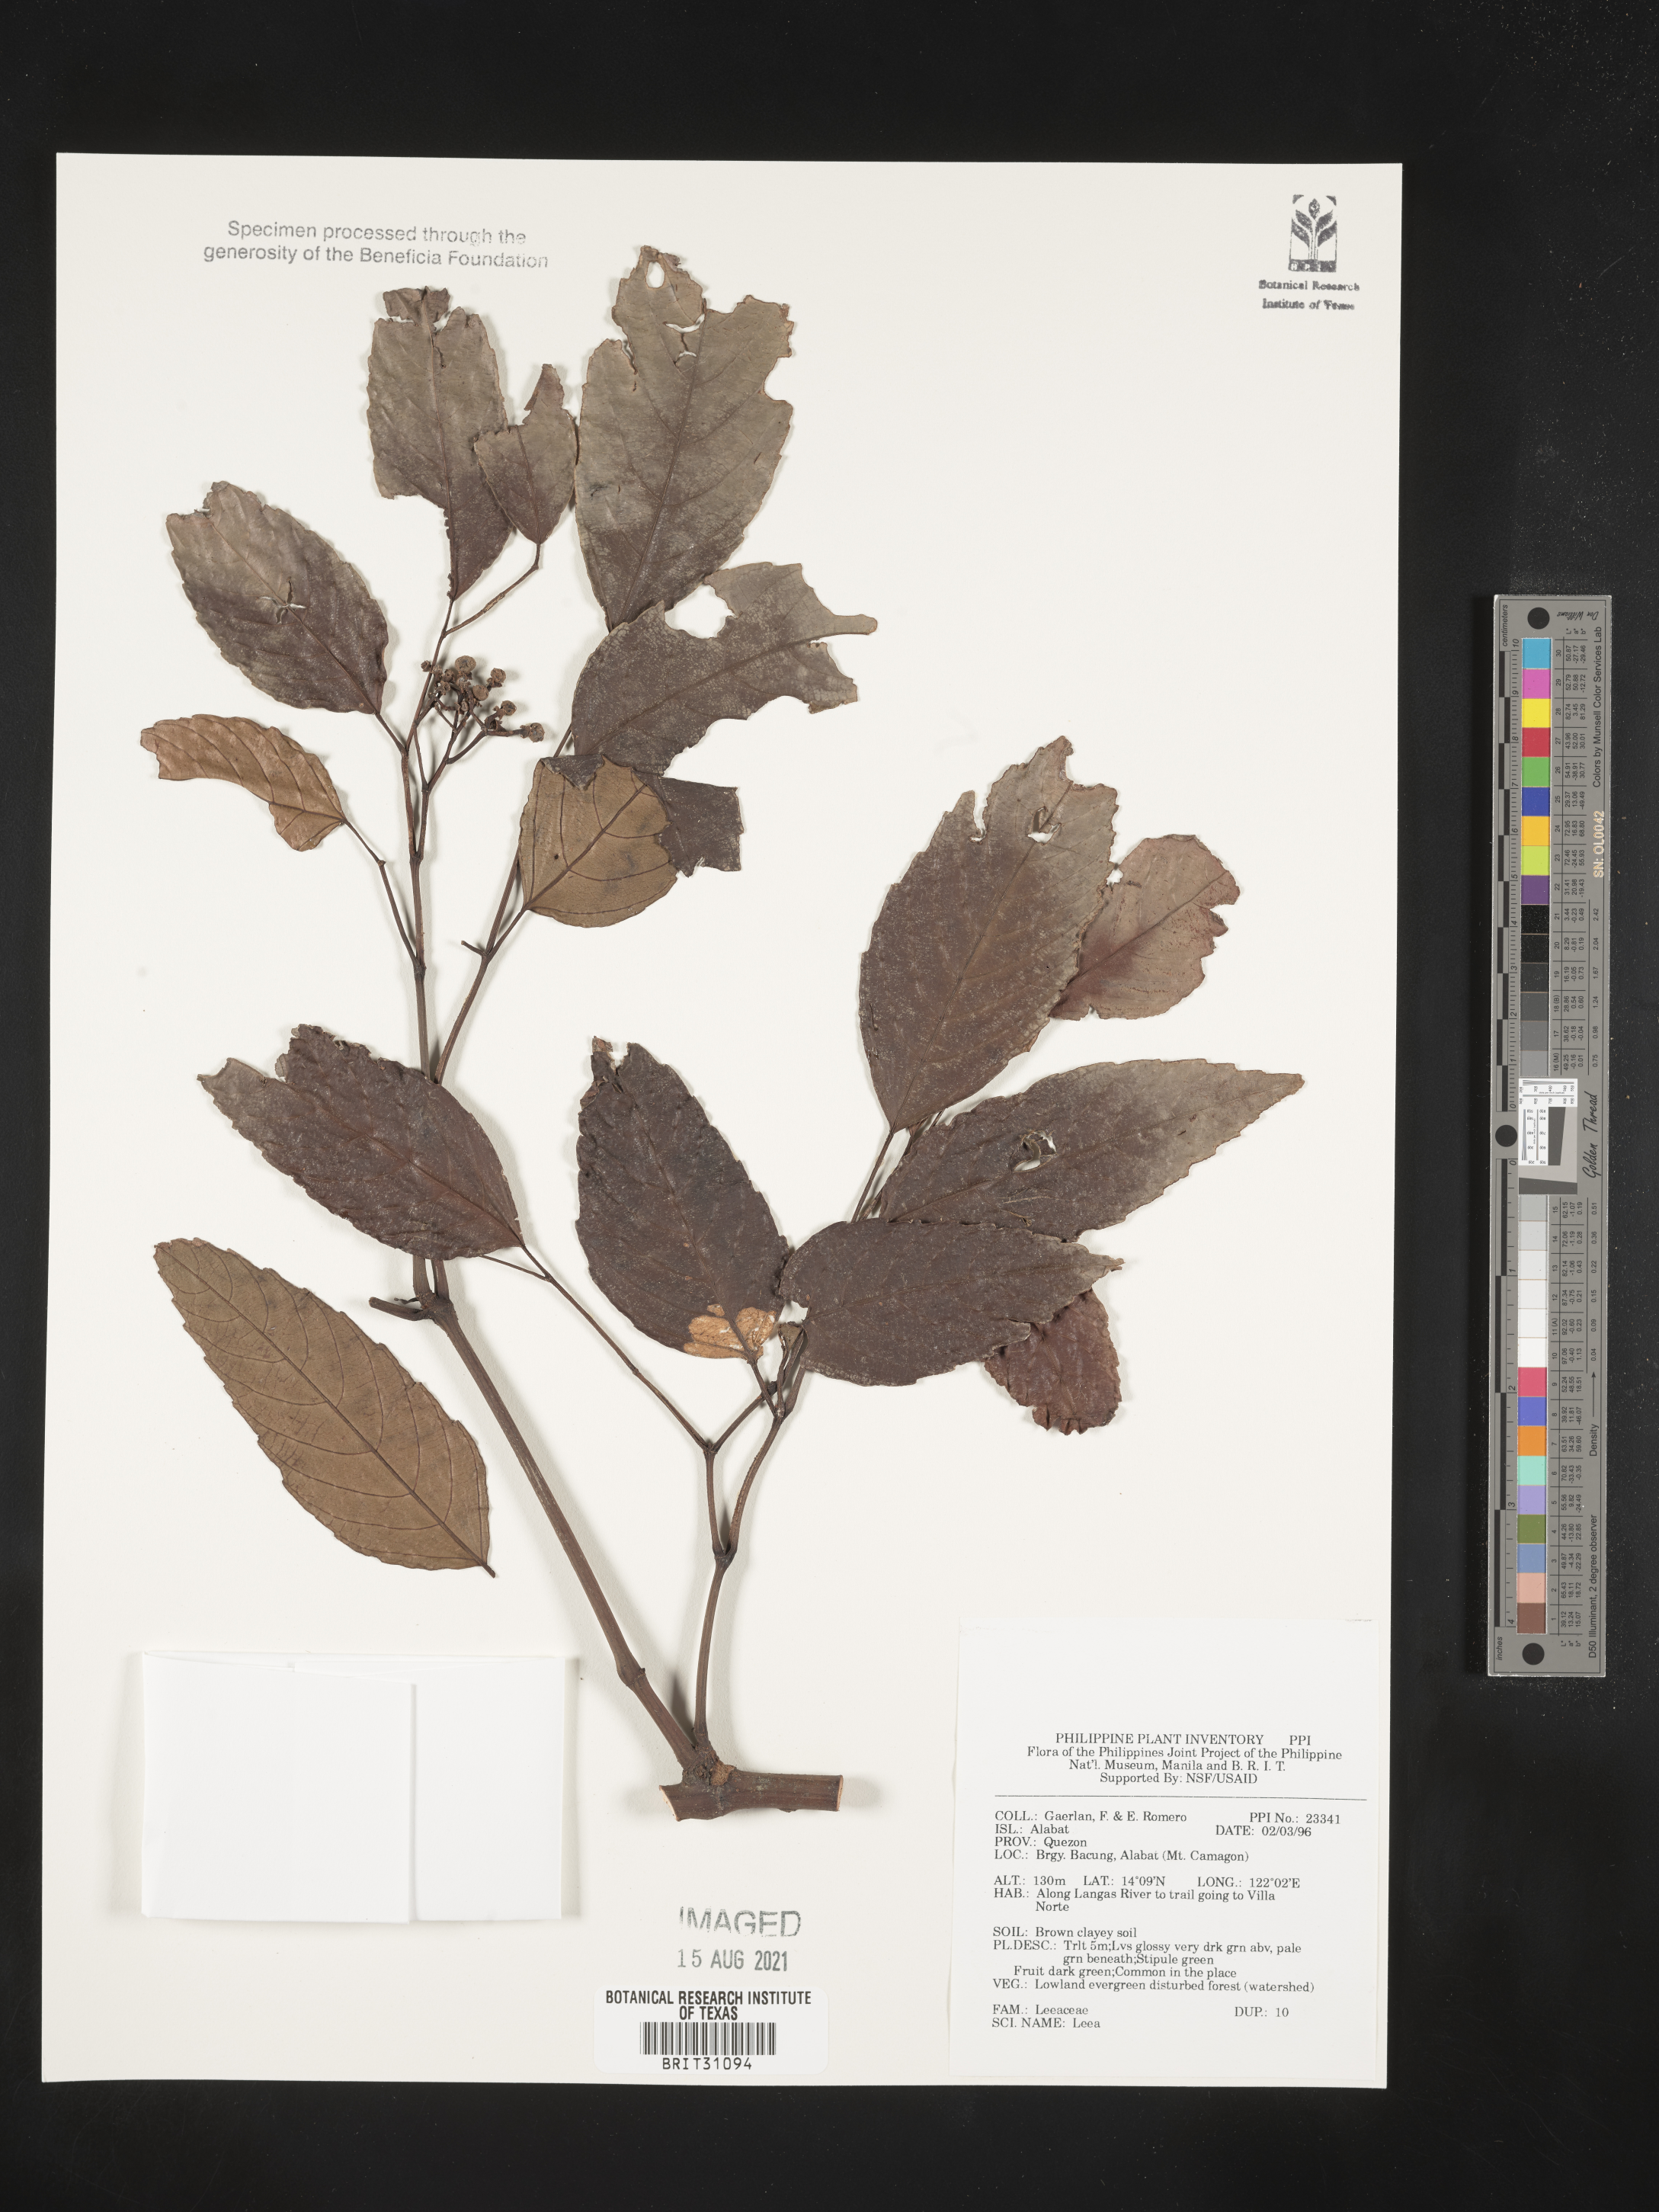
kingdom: Plantae
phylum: Tracheophyta
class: Magnoliopsida
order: Vitales
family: Vitaceae
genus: Leea
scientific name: Leea
